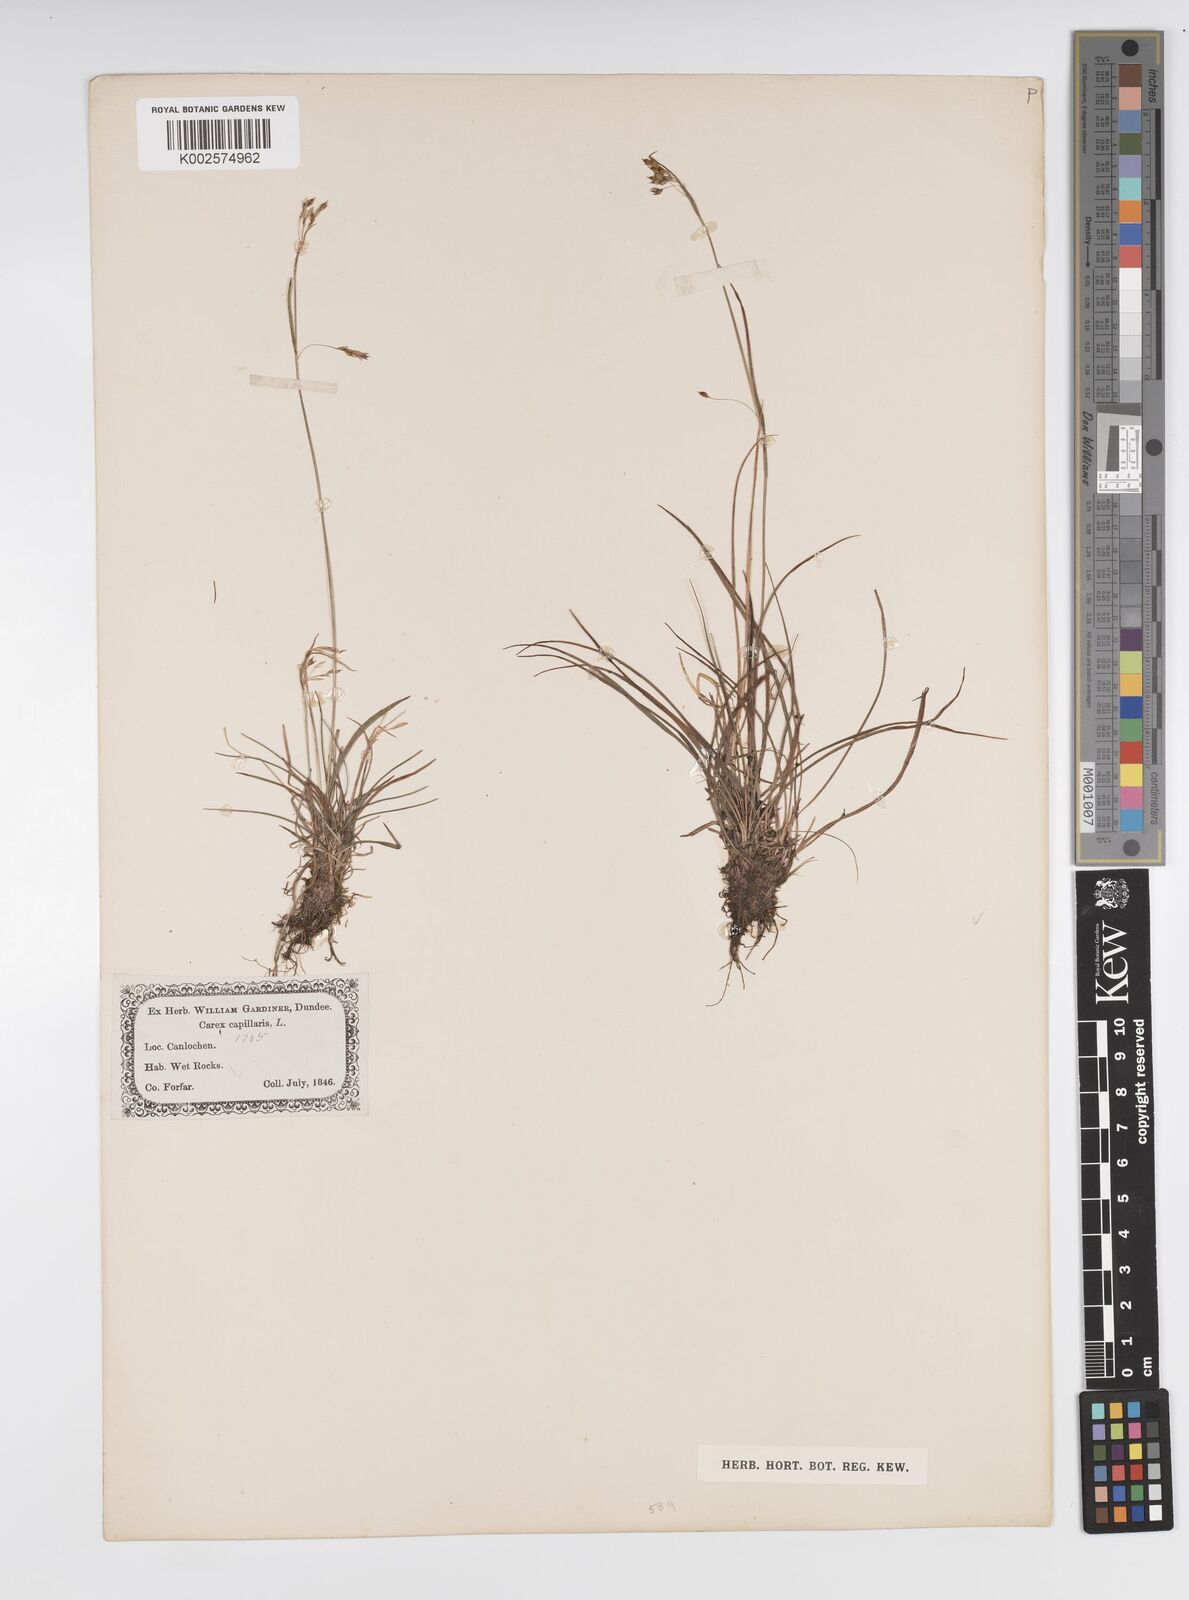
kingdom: Plantae
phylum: Tracheophyta
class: Liliopsida
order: Poales
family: Cyperaceae
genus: Carex
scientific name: Carex capillaris
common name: Hair sedge
